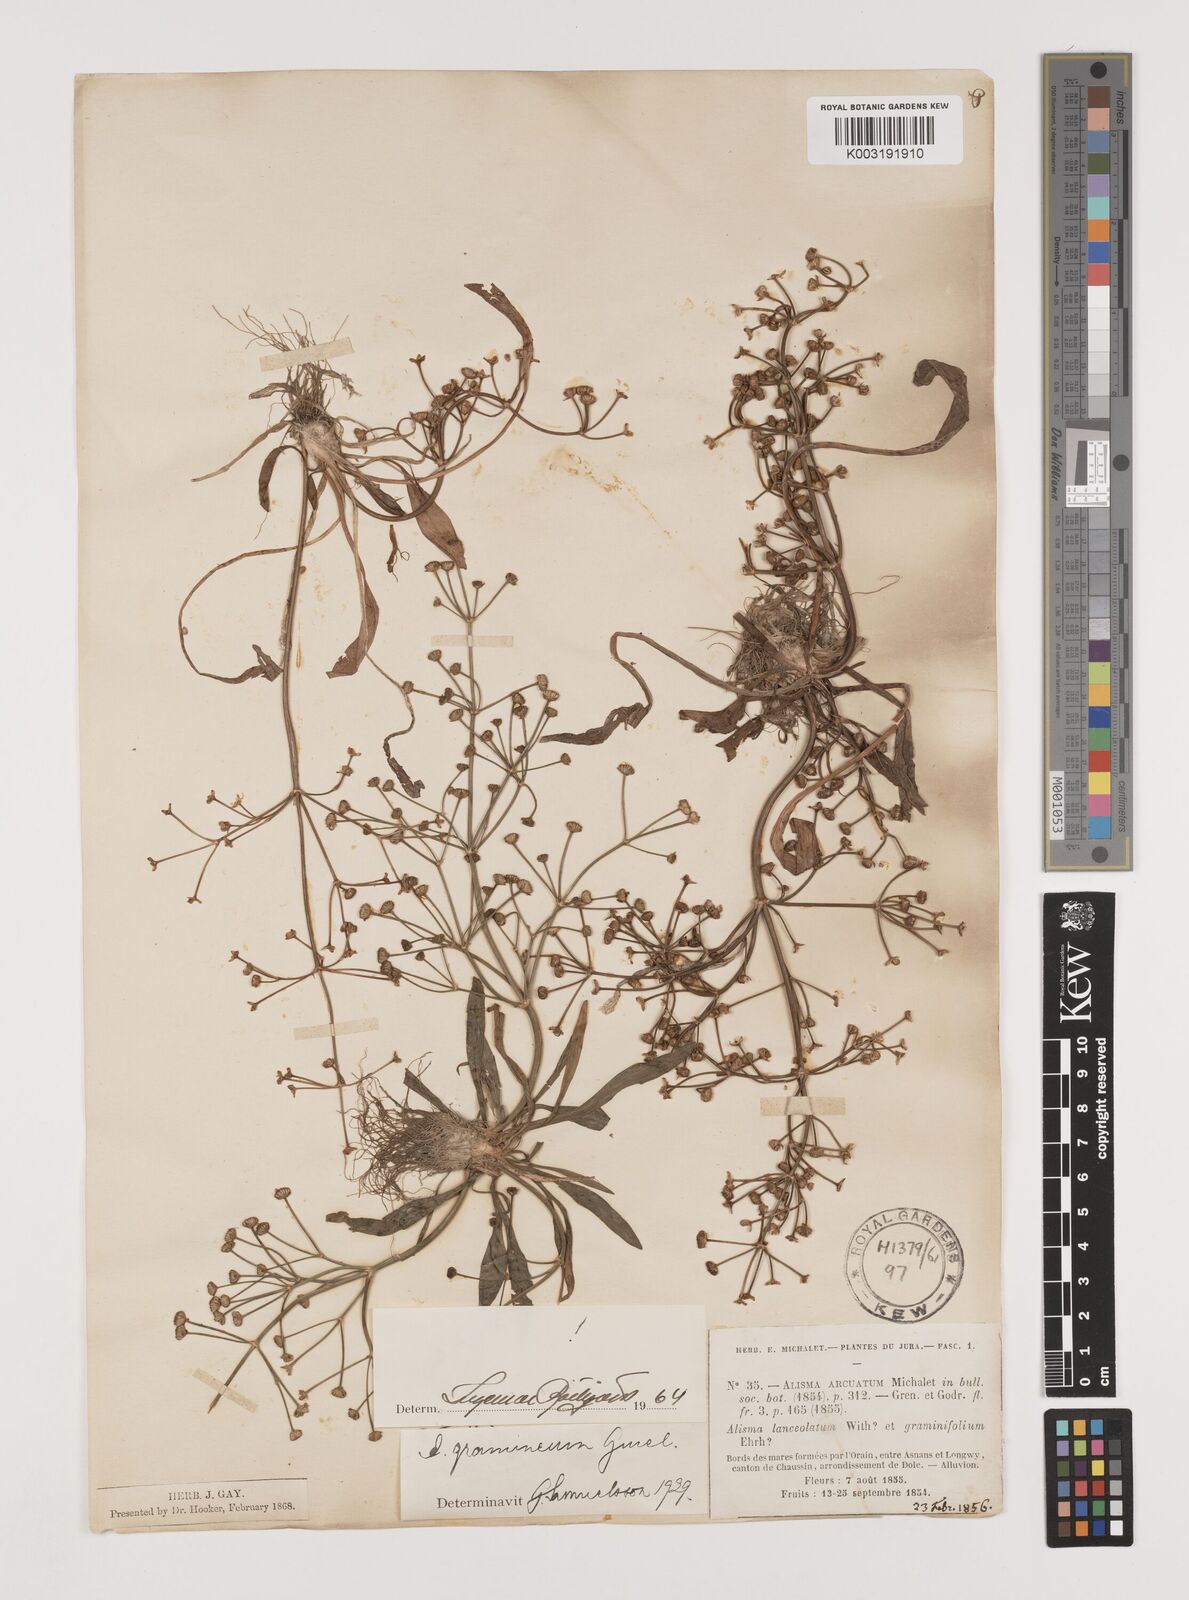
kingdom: Plantae
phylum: Tracheophyta
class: Liliopsida
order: Alismatales
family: Alismataceae
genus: Alisma
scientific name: Alisma gramineum
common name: Ribbon-leaved water-plantain
